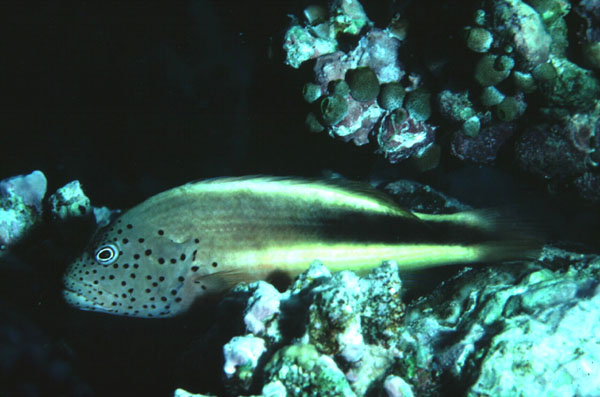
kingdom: Animalia
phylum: Chordata
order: Perciformes
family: Cirrhitidae
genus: Paracirrhites
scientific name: Paracirrhites forsteri
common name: Freckled hawkfish
